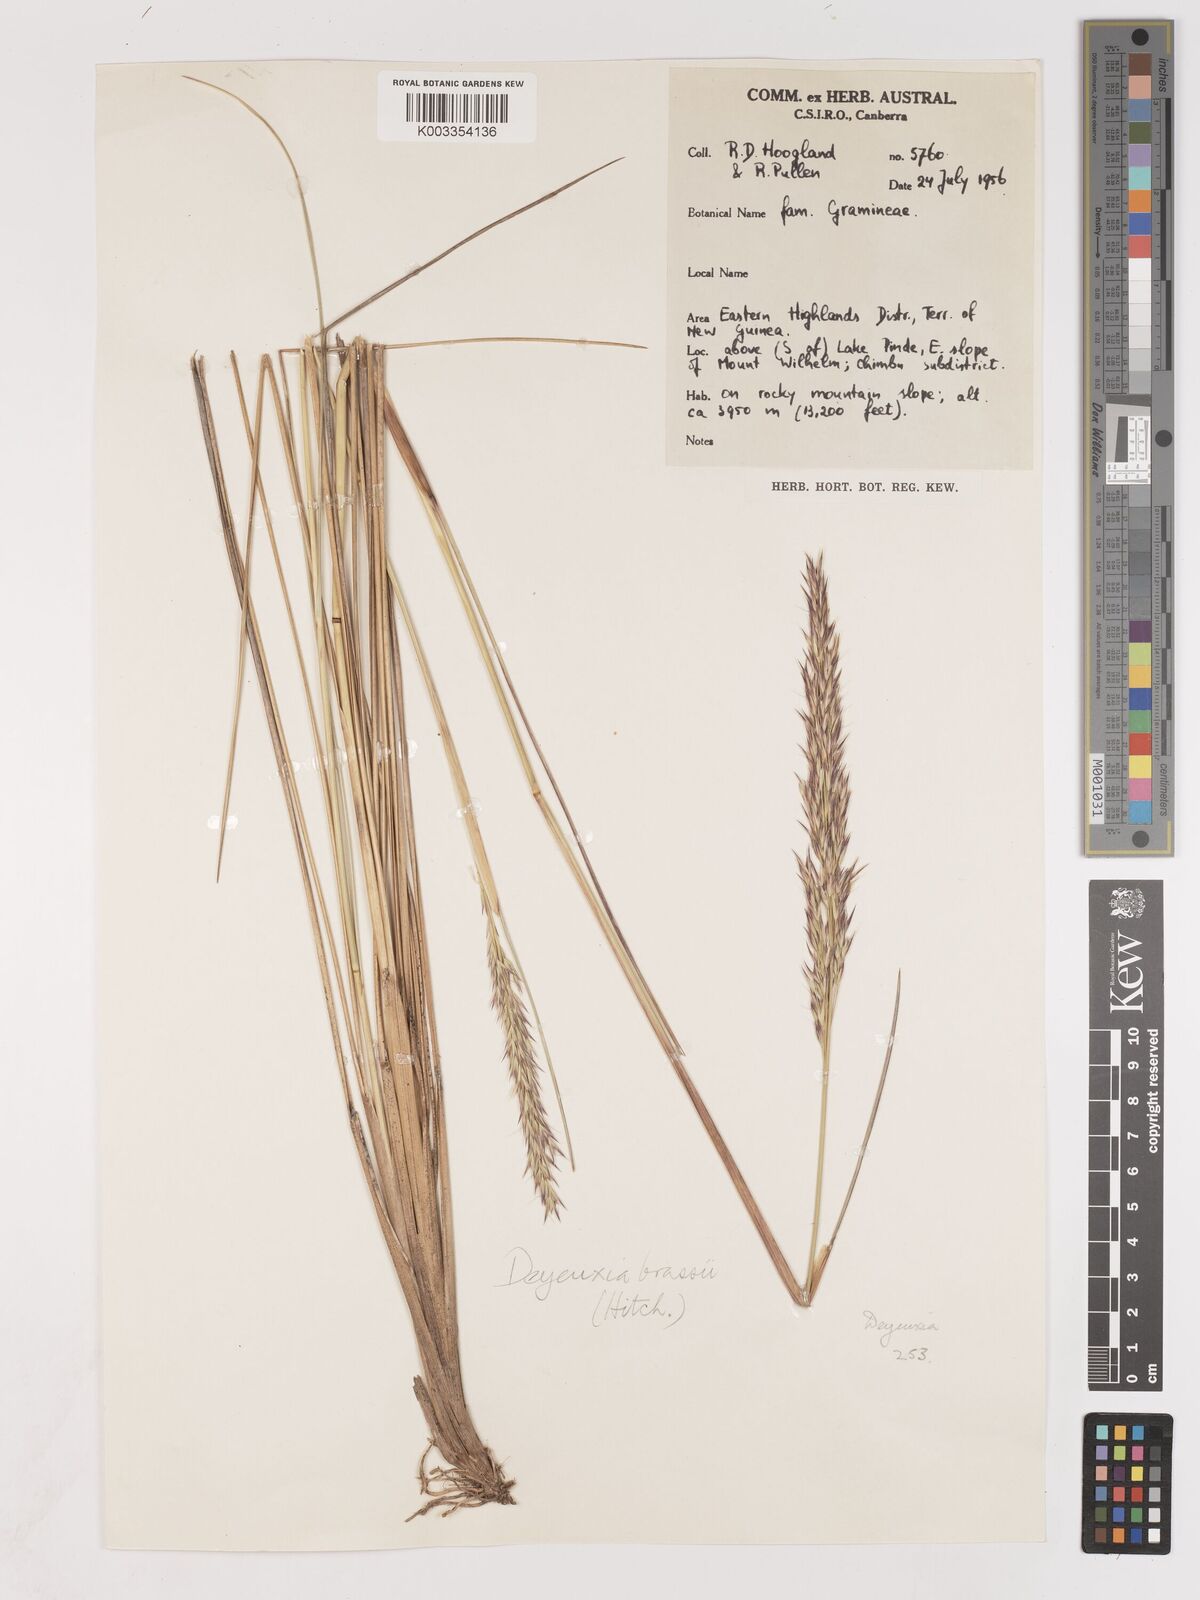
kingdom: Plantae
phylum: Tracheophyta
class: Liliopsida
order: Poales
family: Poaceae
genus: Calamagrostis
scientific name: Calamagrostis brassii
